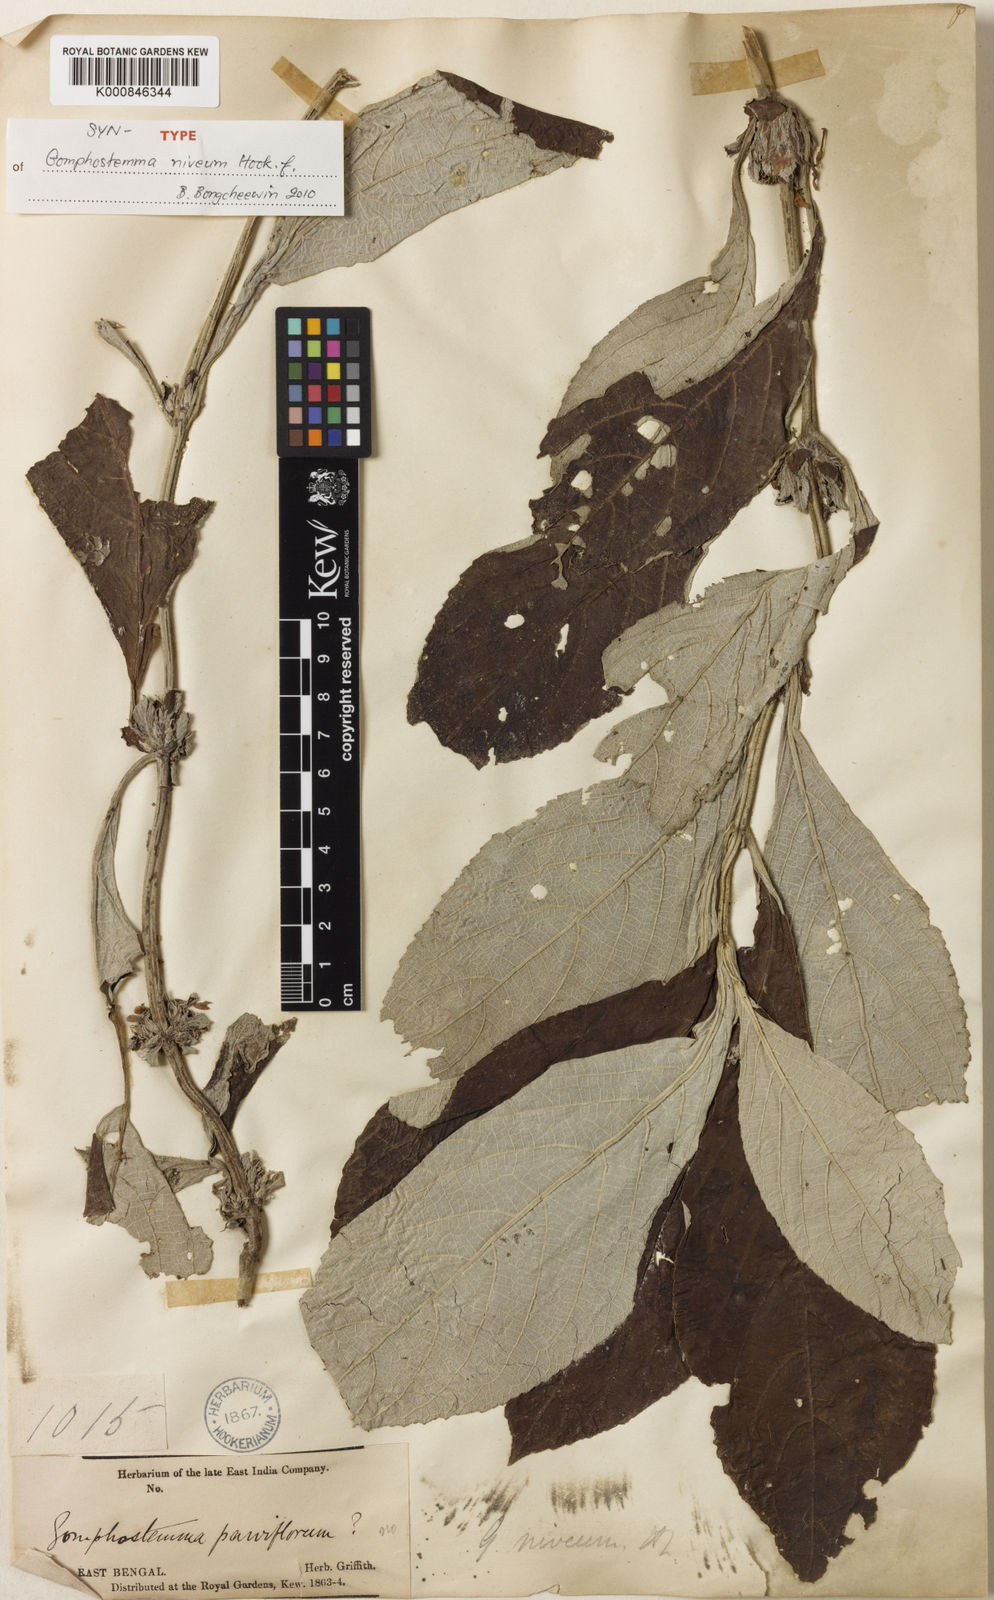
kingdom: Plantae
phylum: Tracheophyta
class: Magnoliopsida
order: Lamiales
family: Lamiaceae
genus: Gomphostemma
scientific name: Gomphostemma niveum
